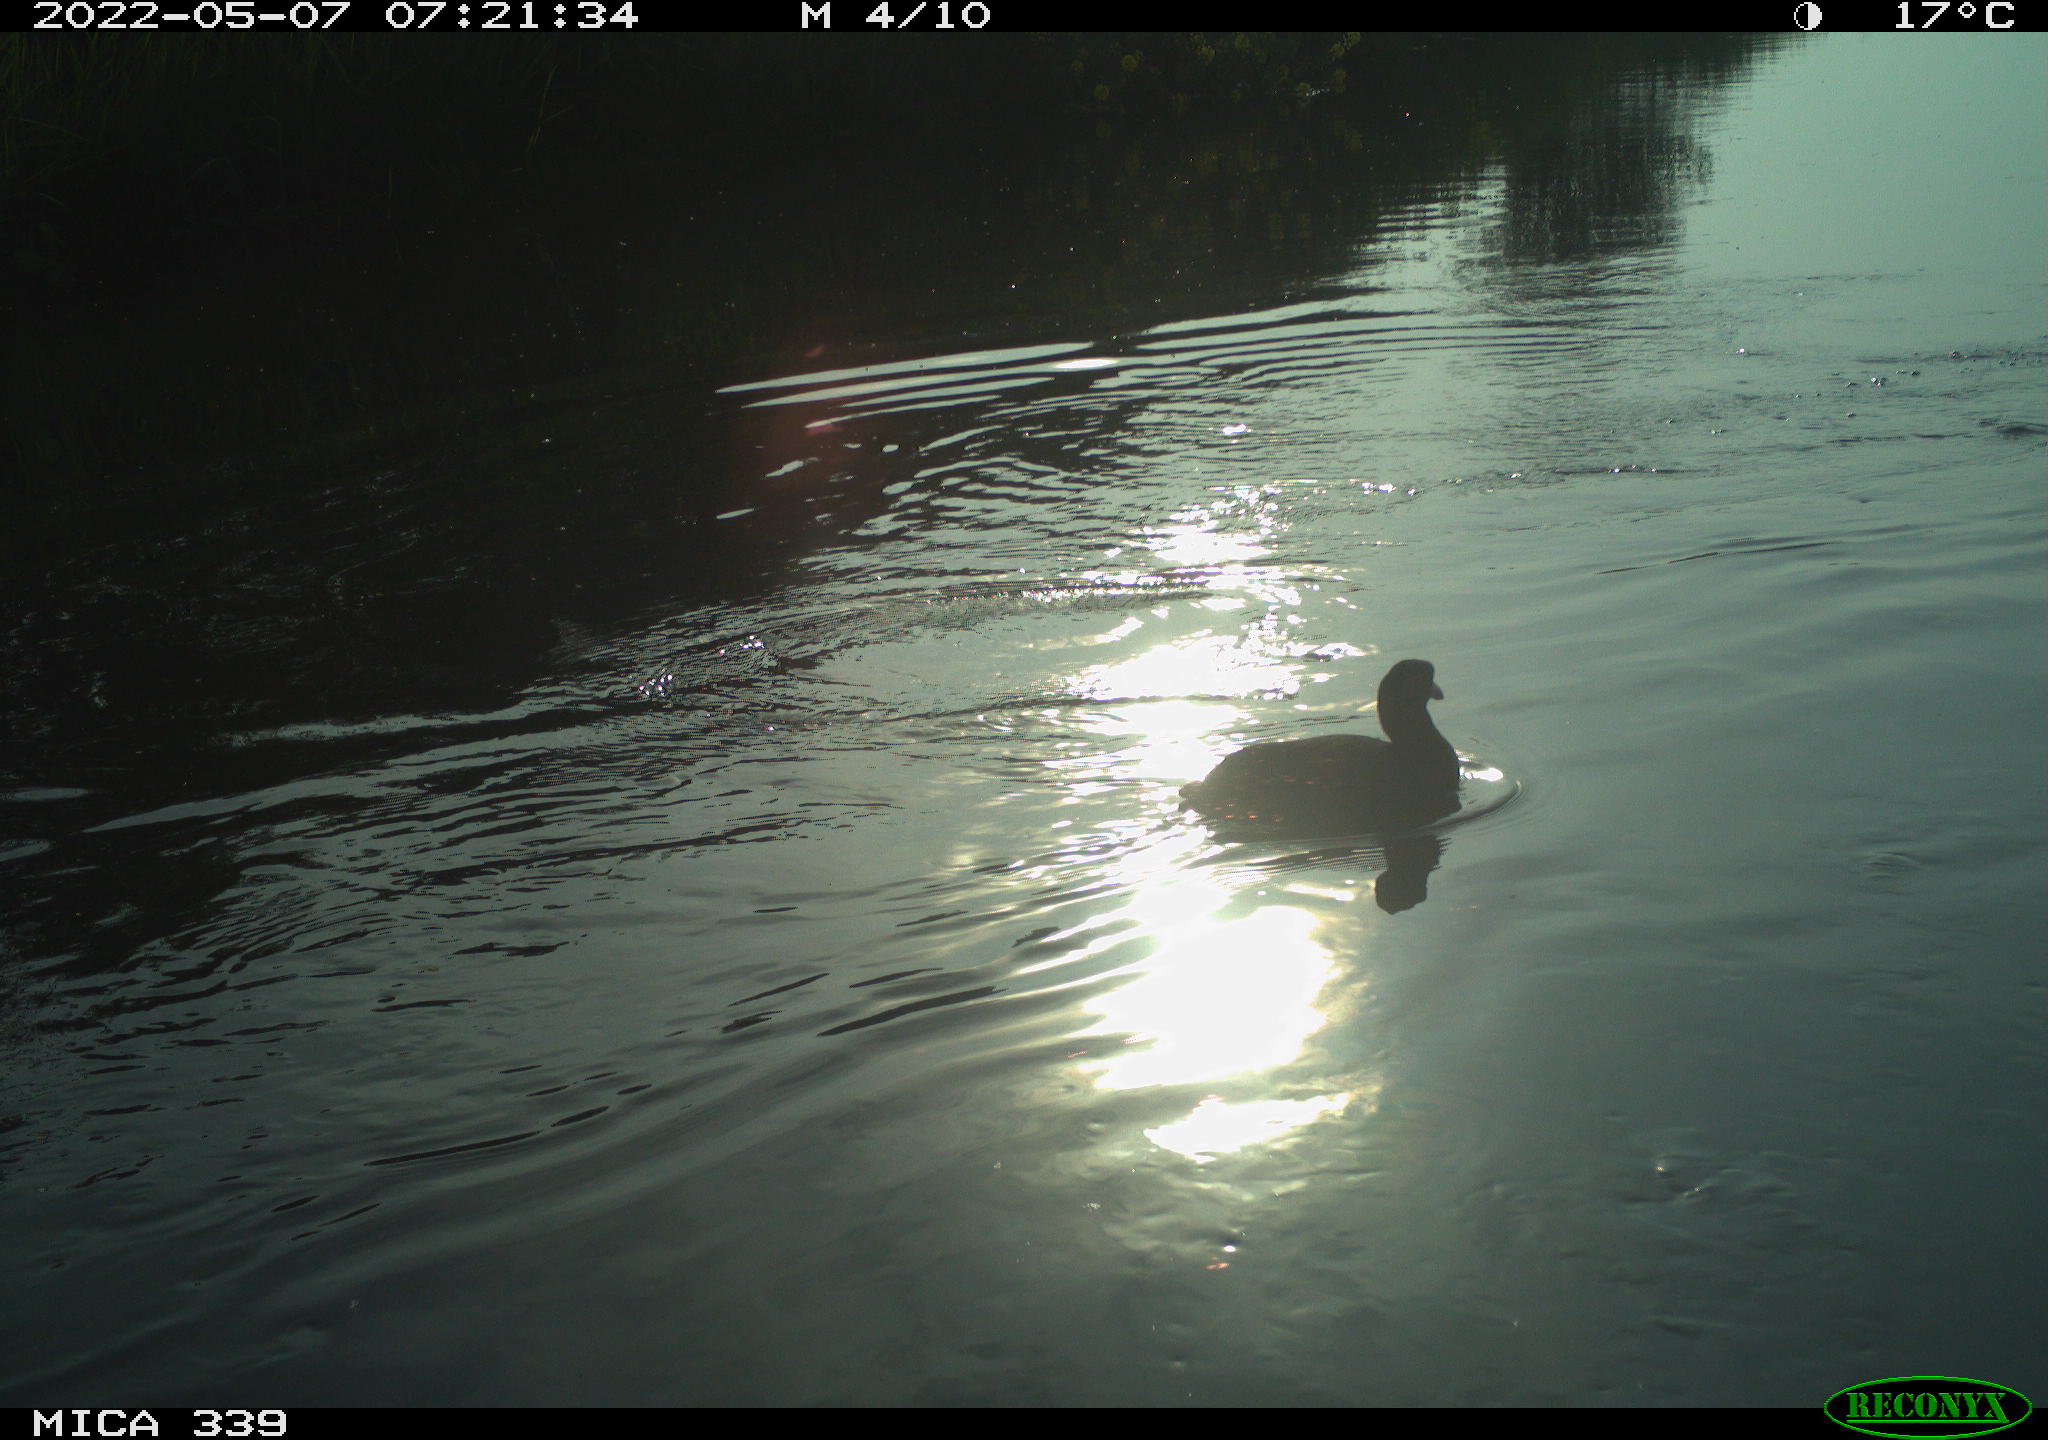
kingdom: Animalia
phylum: Chordata
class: Aves
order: Gruiformes
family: Rallidae
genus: Fulica
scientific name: Fulica atra
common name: Eurasian coot
